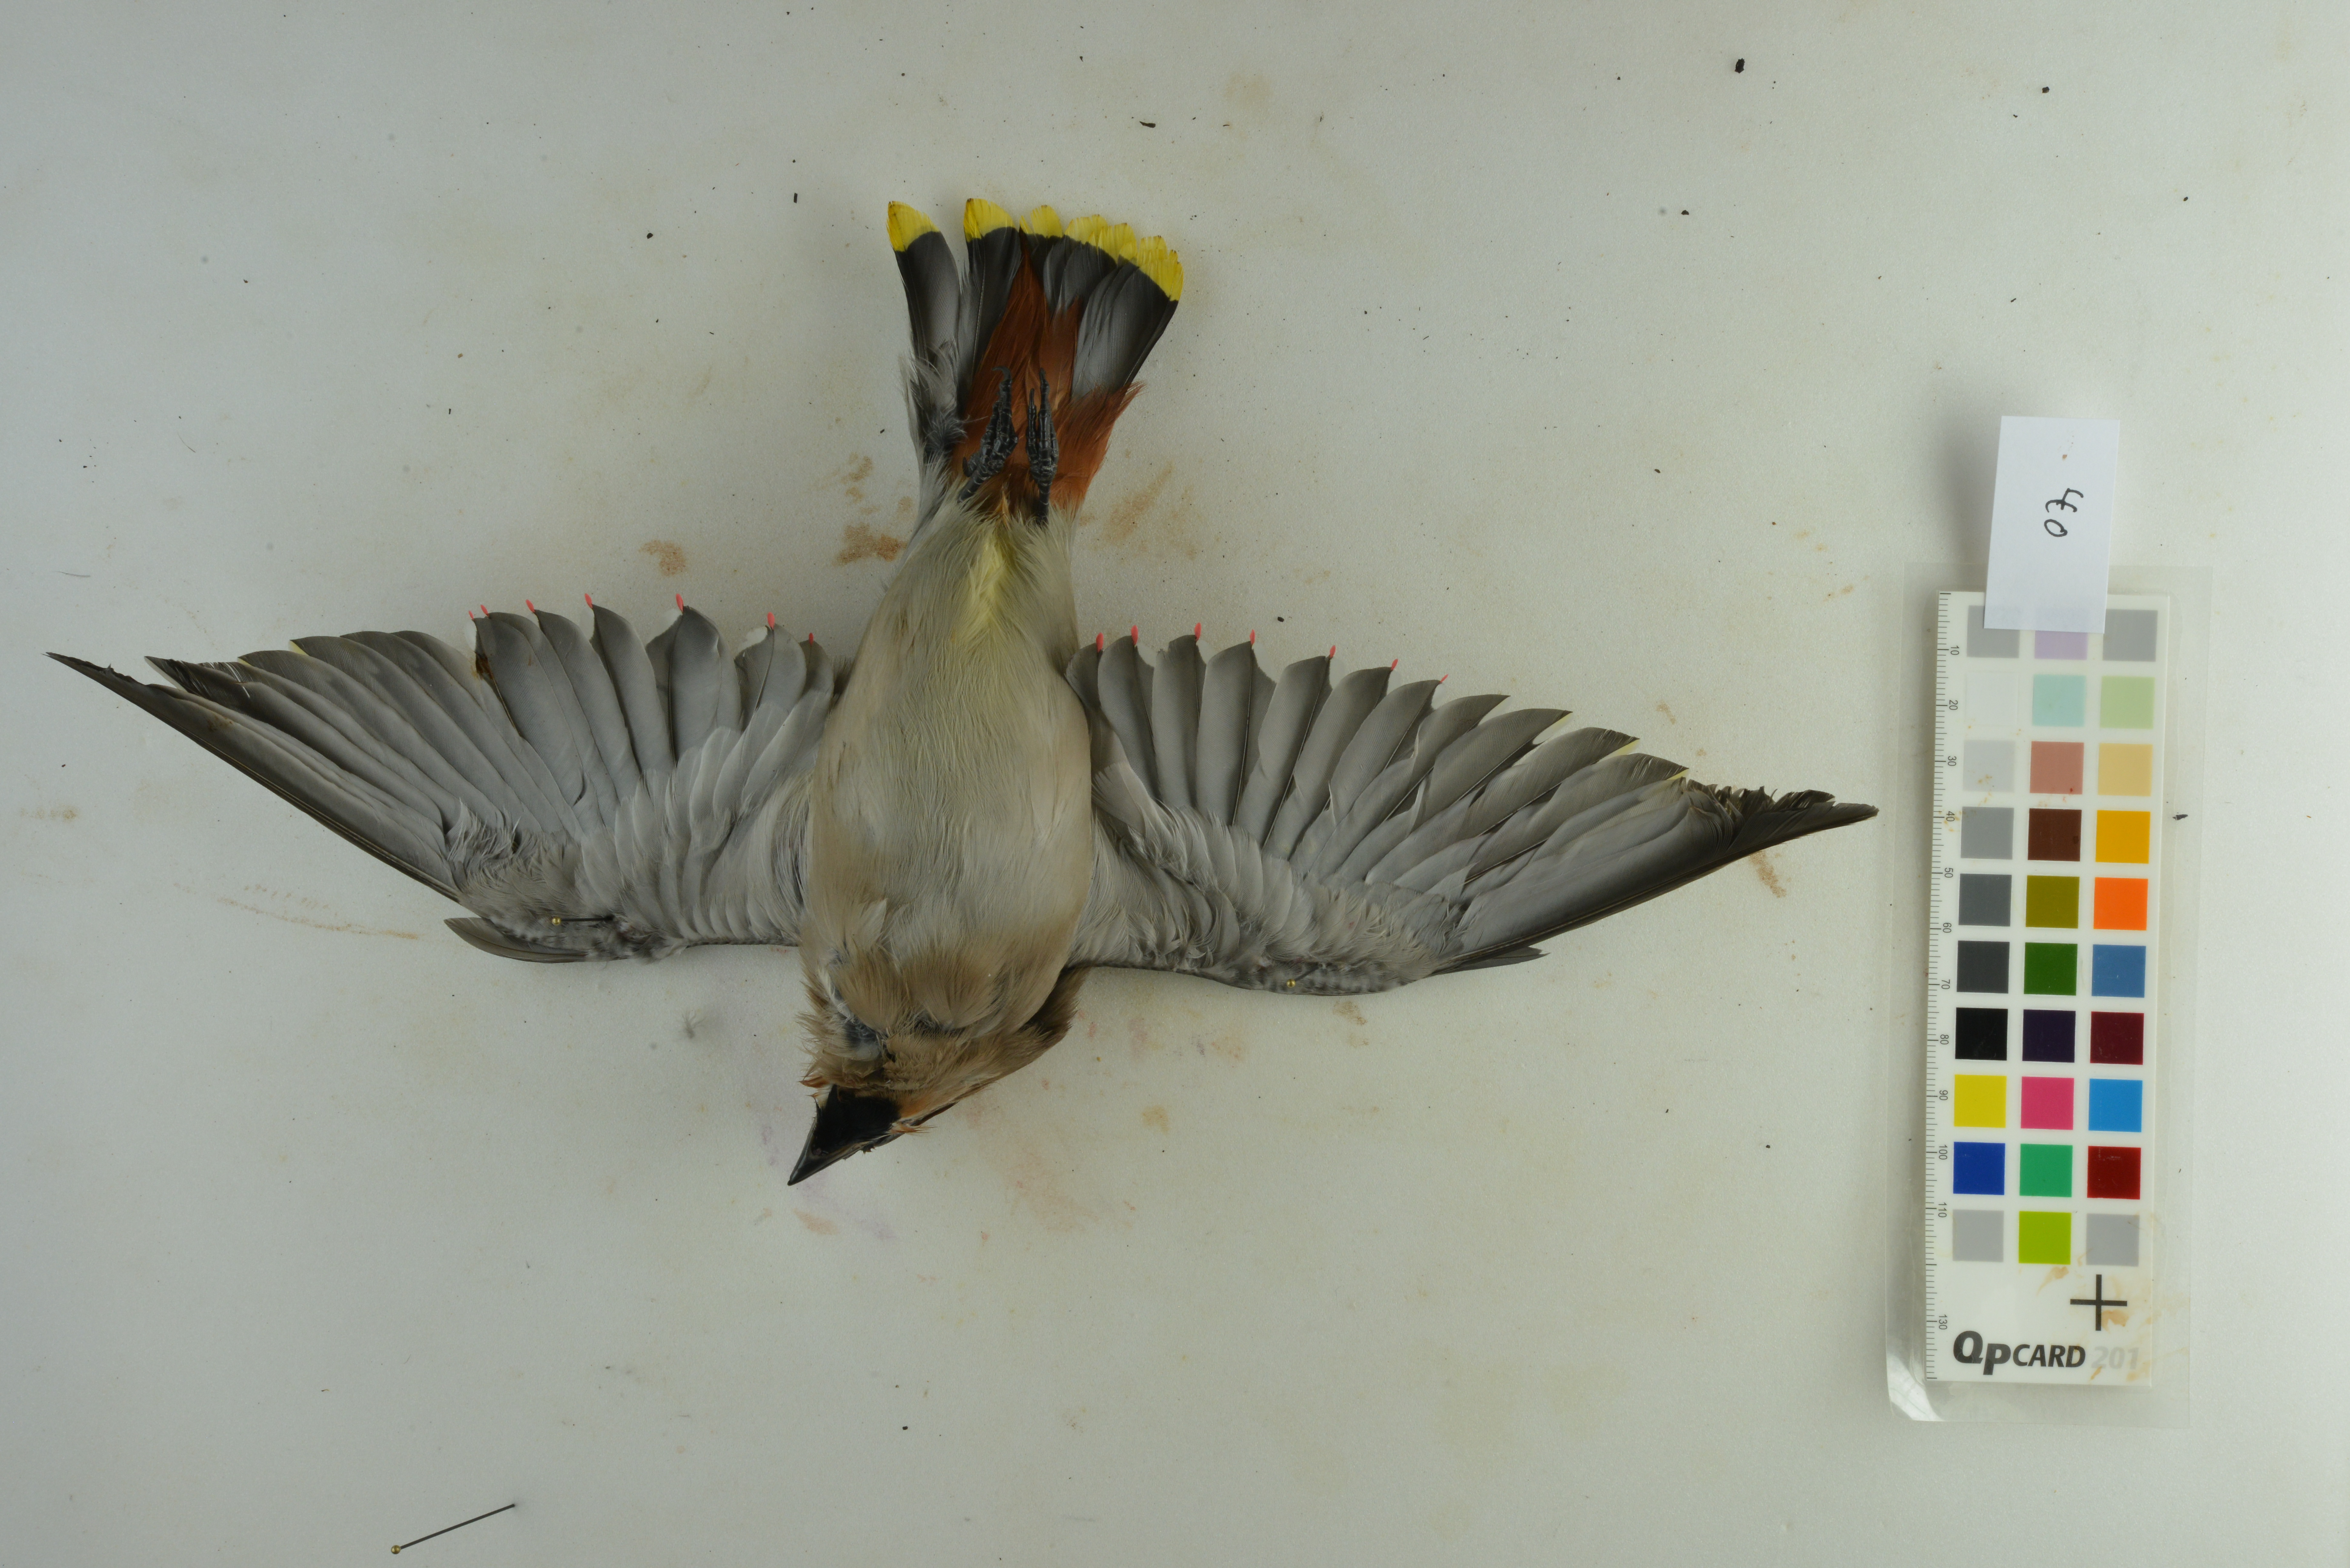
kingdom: Animalia
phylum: Chordata
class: Aves
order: Passeriformes
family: Bombycillidae
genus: Bombycilla
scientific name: Bombycilla garrulus
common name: Bohemian waxwing
